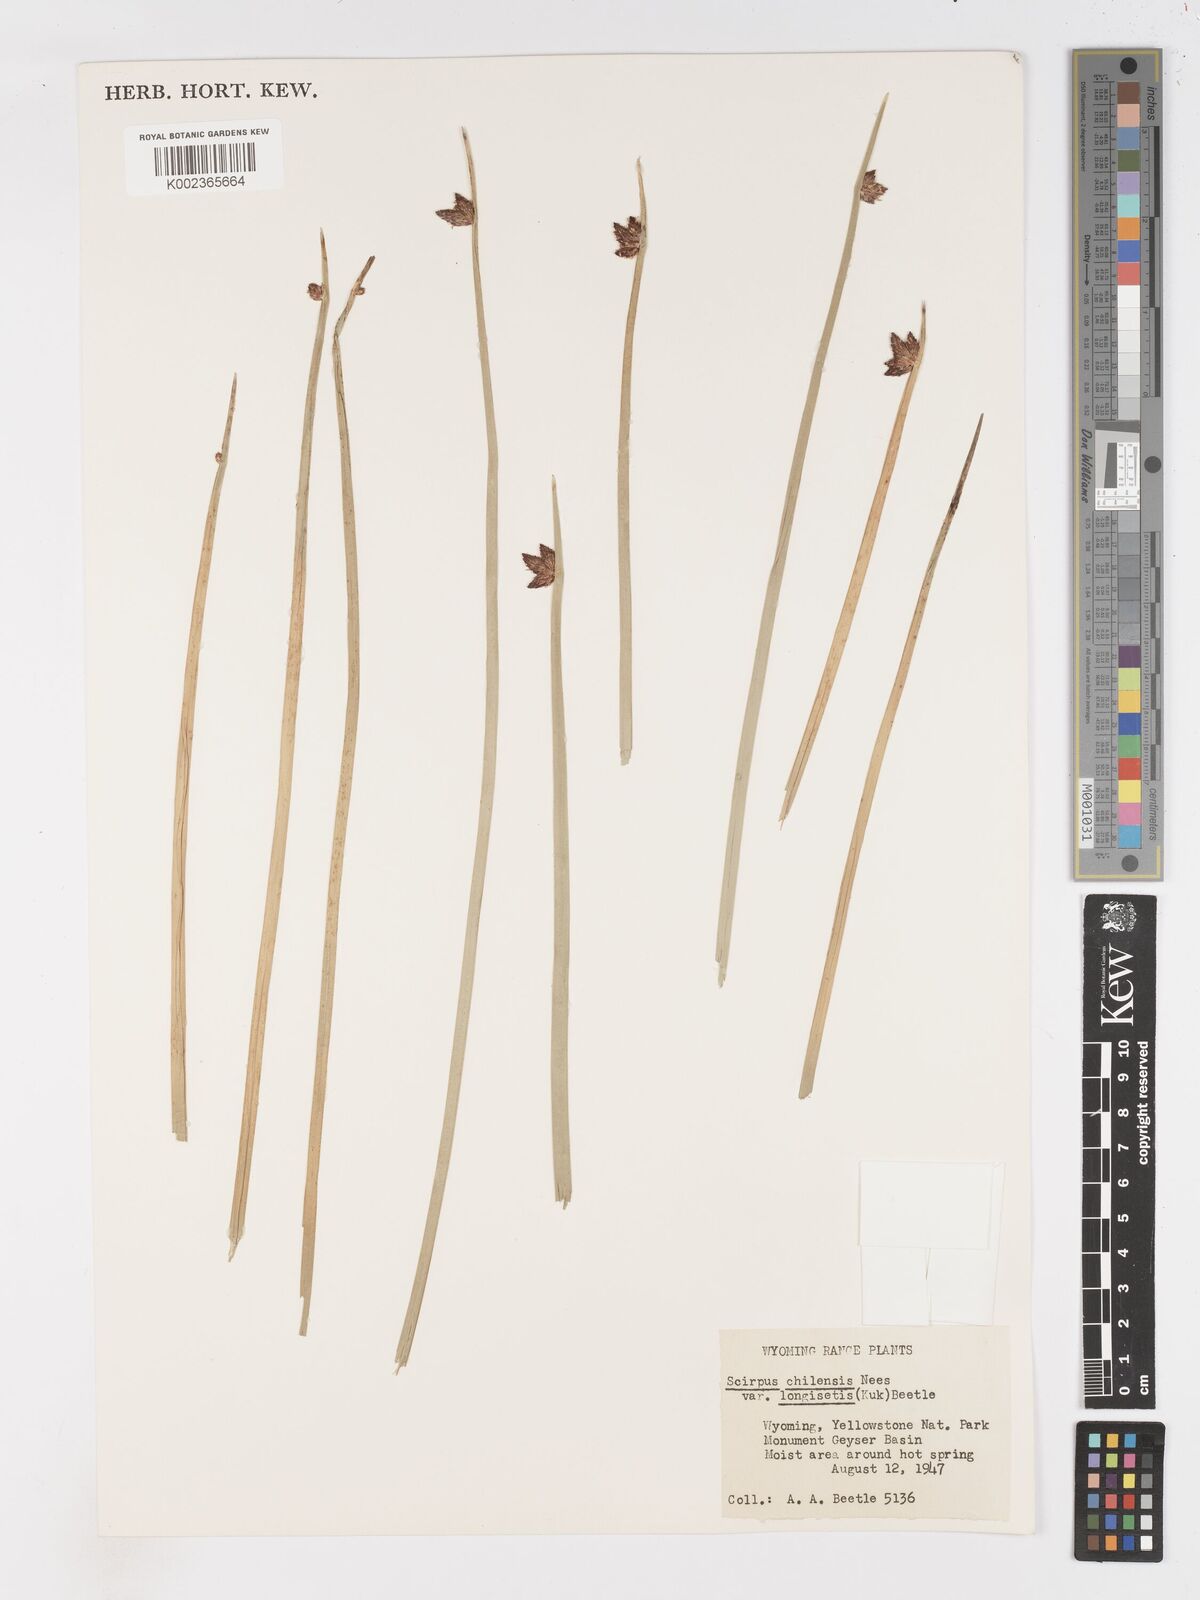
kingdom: Plantae
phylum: Tracheophyta
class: Liliopsida
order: Poales
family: Cyperaceae
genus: Schoenoplectus
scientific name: Schoenoplectus americanus
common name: American three-square bulrush
